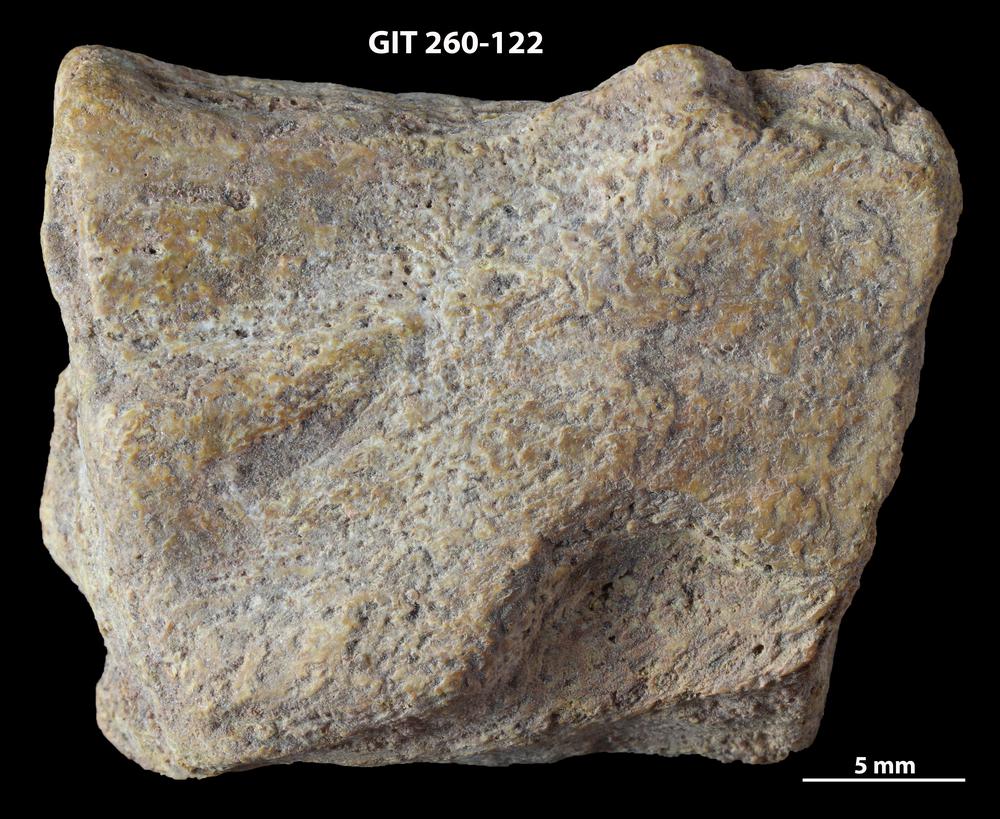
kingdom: Animalia
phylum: Chordata
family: Homostiidae
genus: Homostius
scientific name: Homostius
